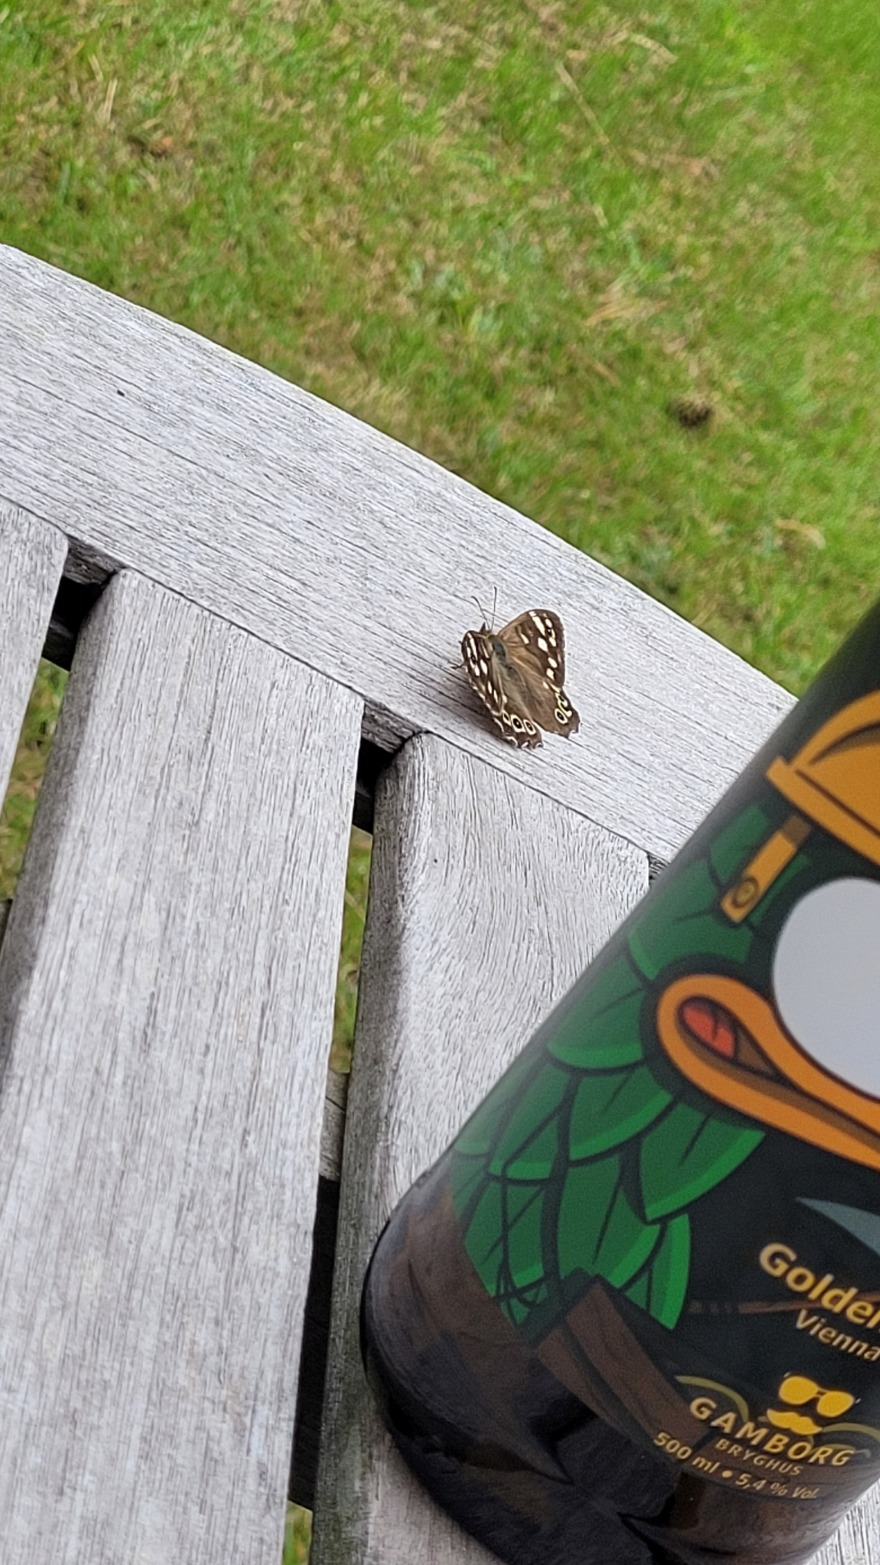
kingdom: Animalia
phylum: Arthropoda
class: Insecta
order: Lepidoptera
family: Nymphalidae
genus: Pararge
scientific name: Pararge aegeria
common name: Skovrandøje
